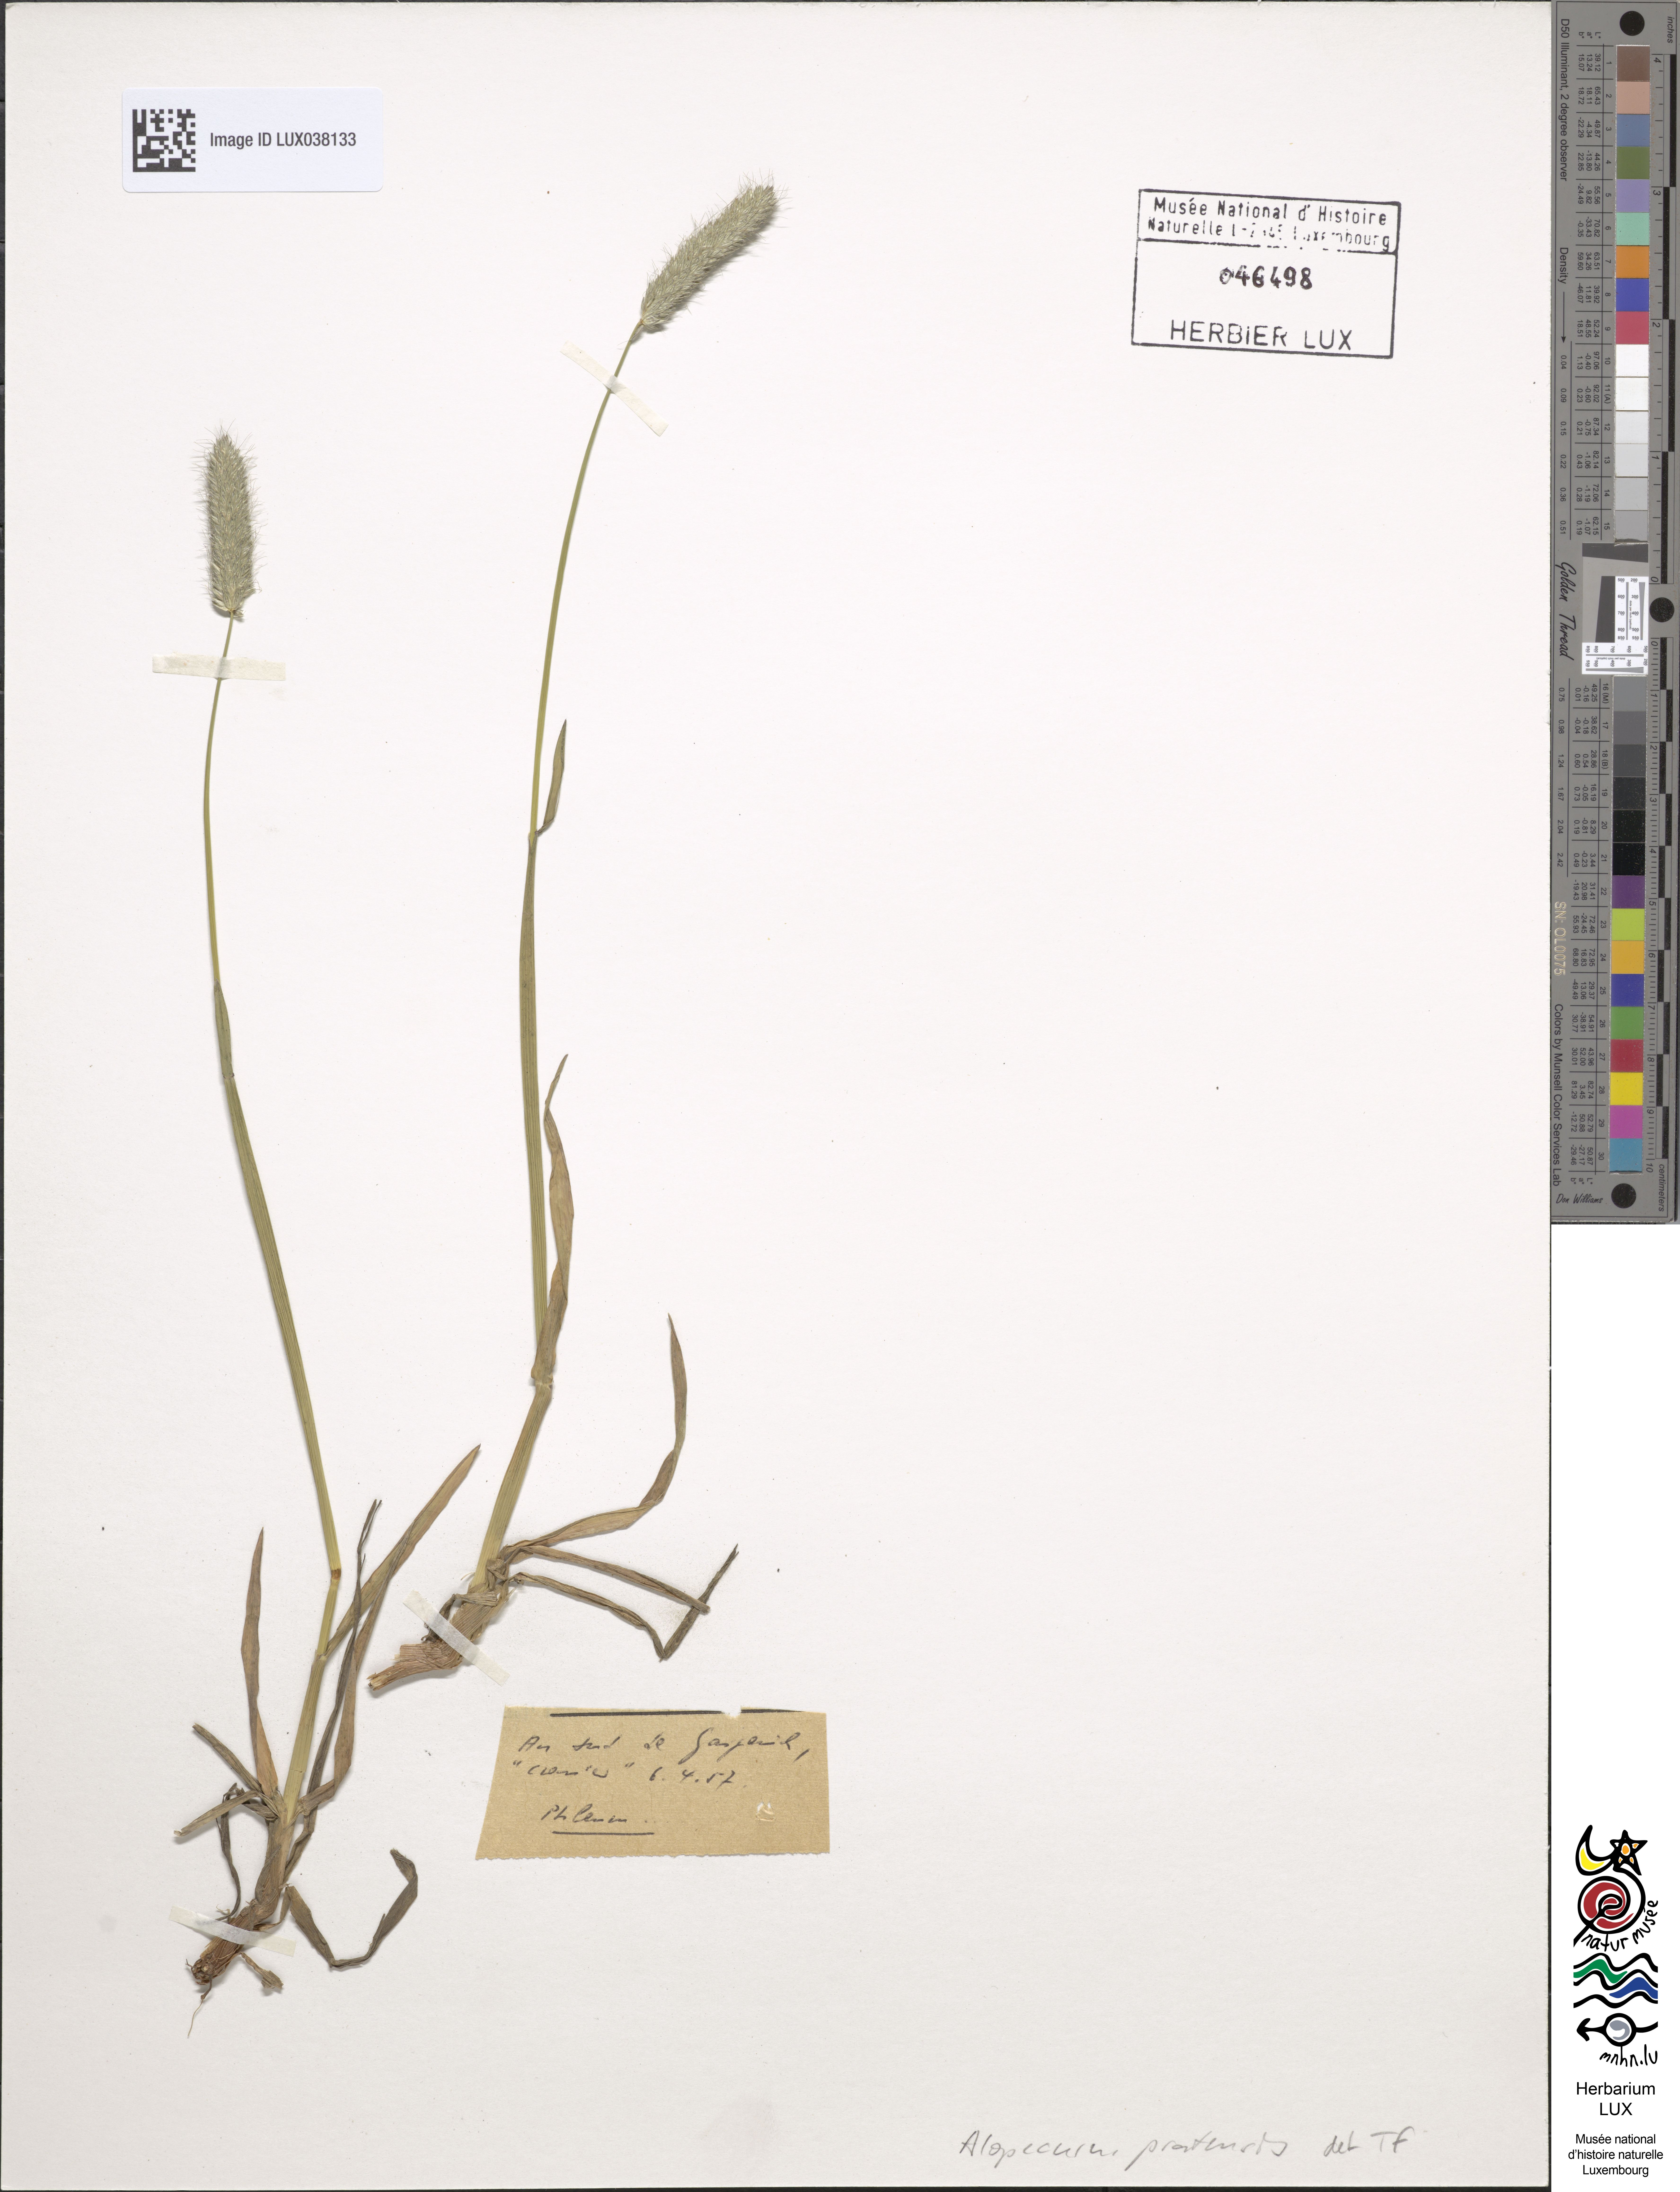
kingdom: Plantae
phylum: Tracheophyta
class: Liliopsida
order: Poales
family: Poaceae
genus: Alopecurus
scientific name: Alopecurus pratensis
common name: Meadow foxtail
